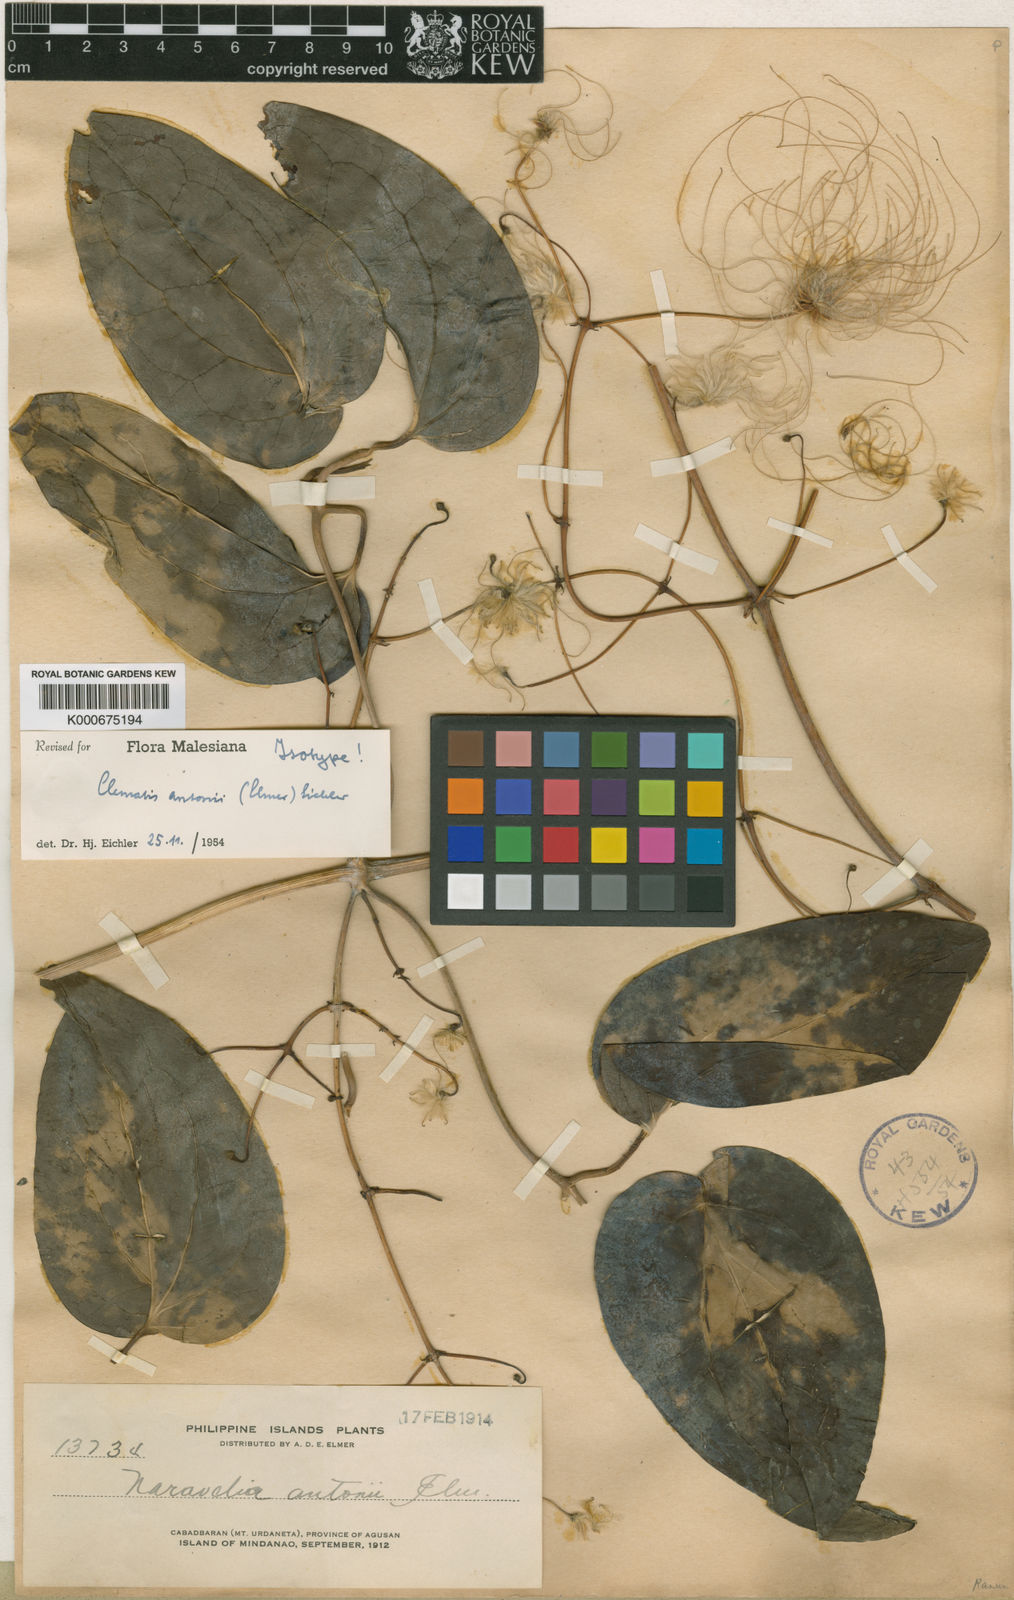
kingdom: Plantae
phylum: Tracheophyta
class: Magnoliopsida
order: Ranunculales
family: Ranunculaceae
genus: Clematis
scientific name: Clematis antonii
